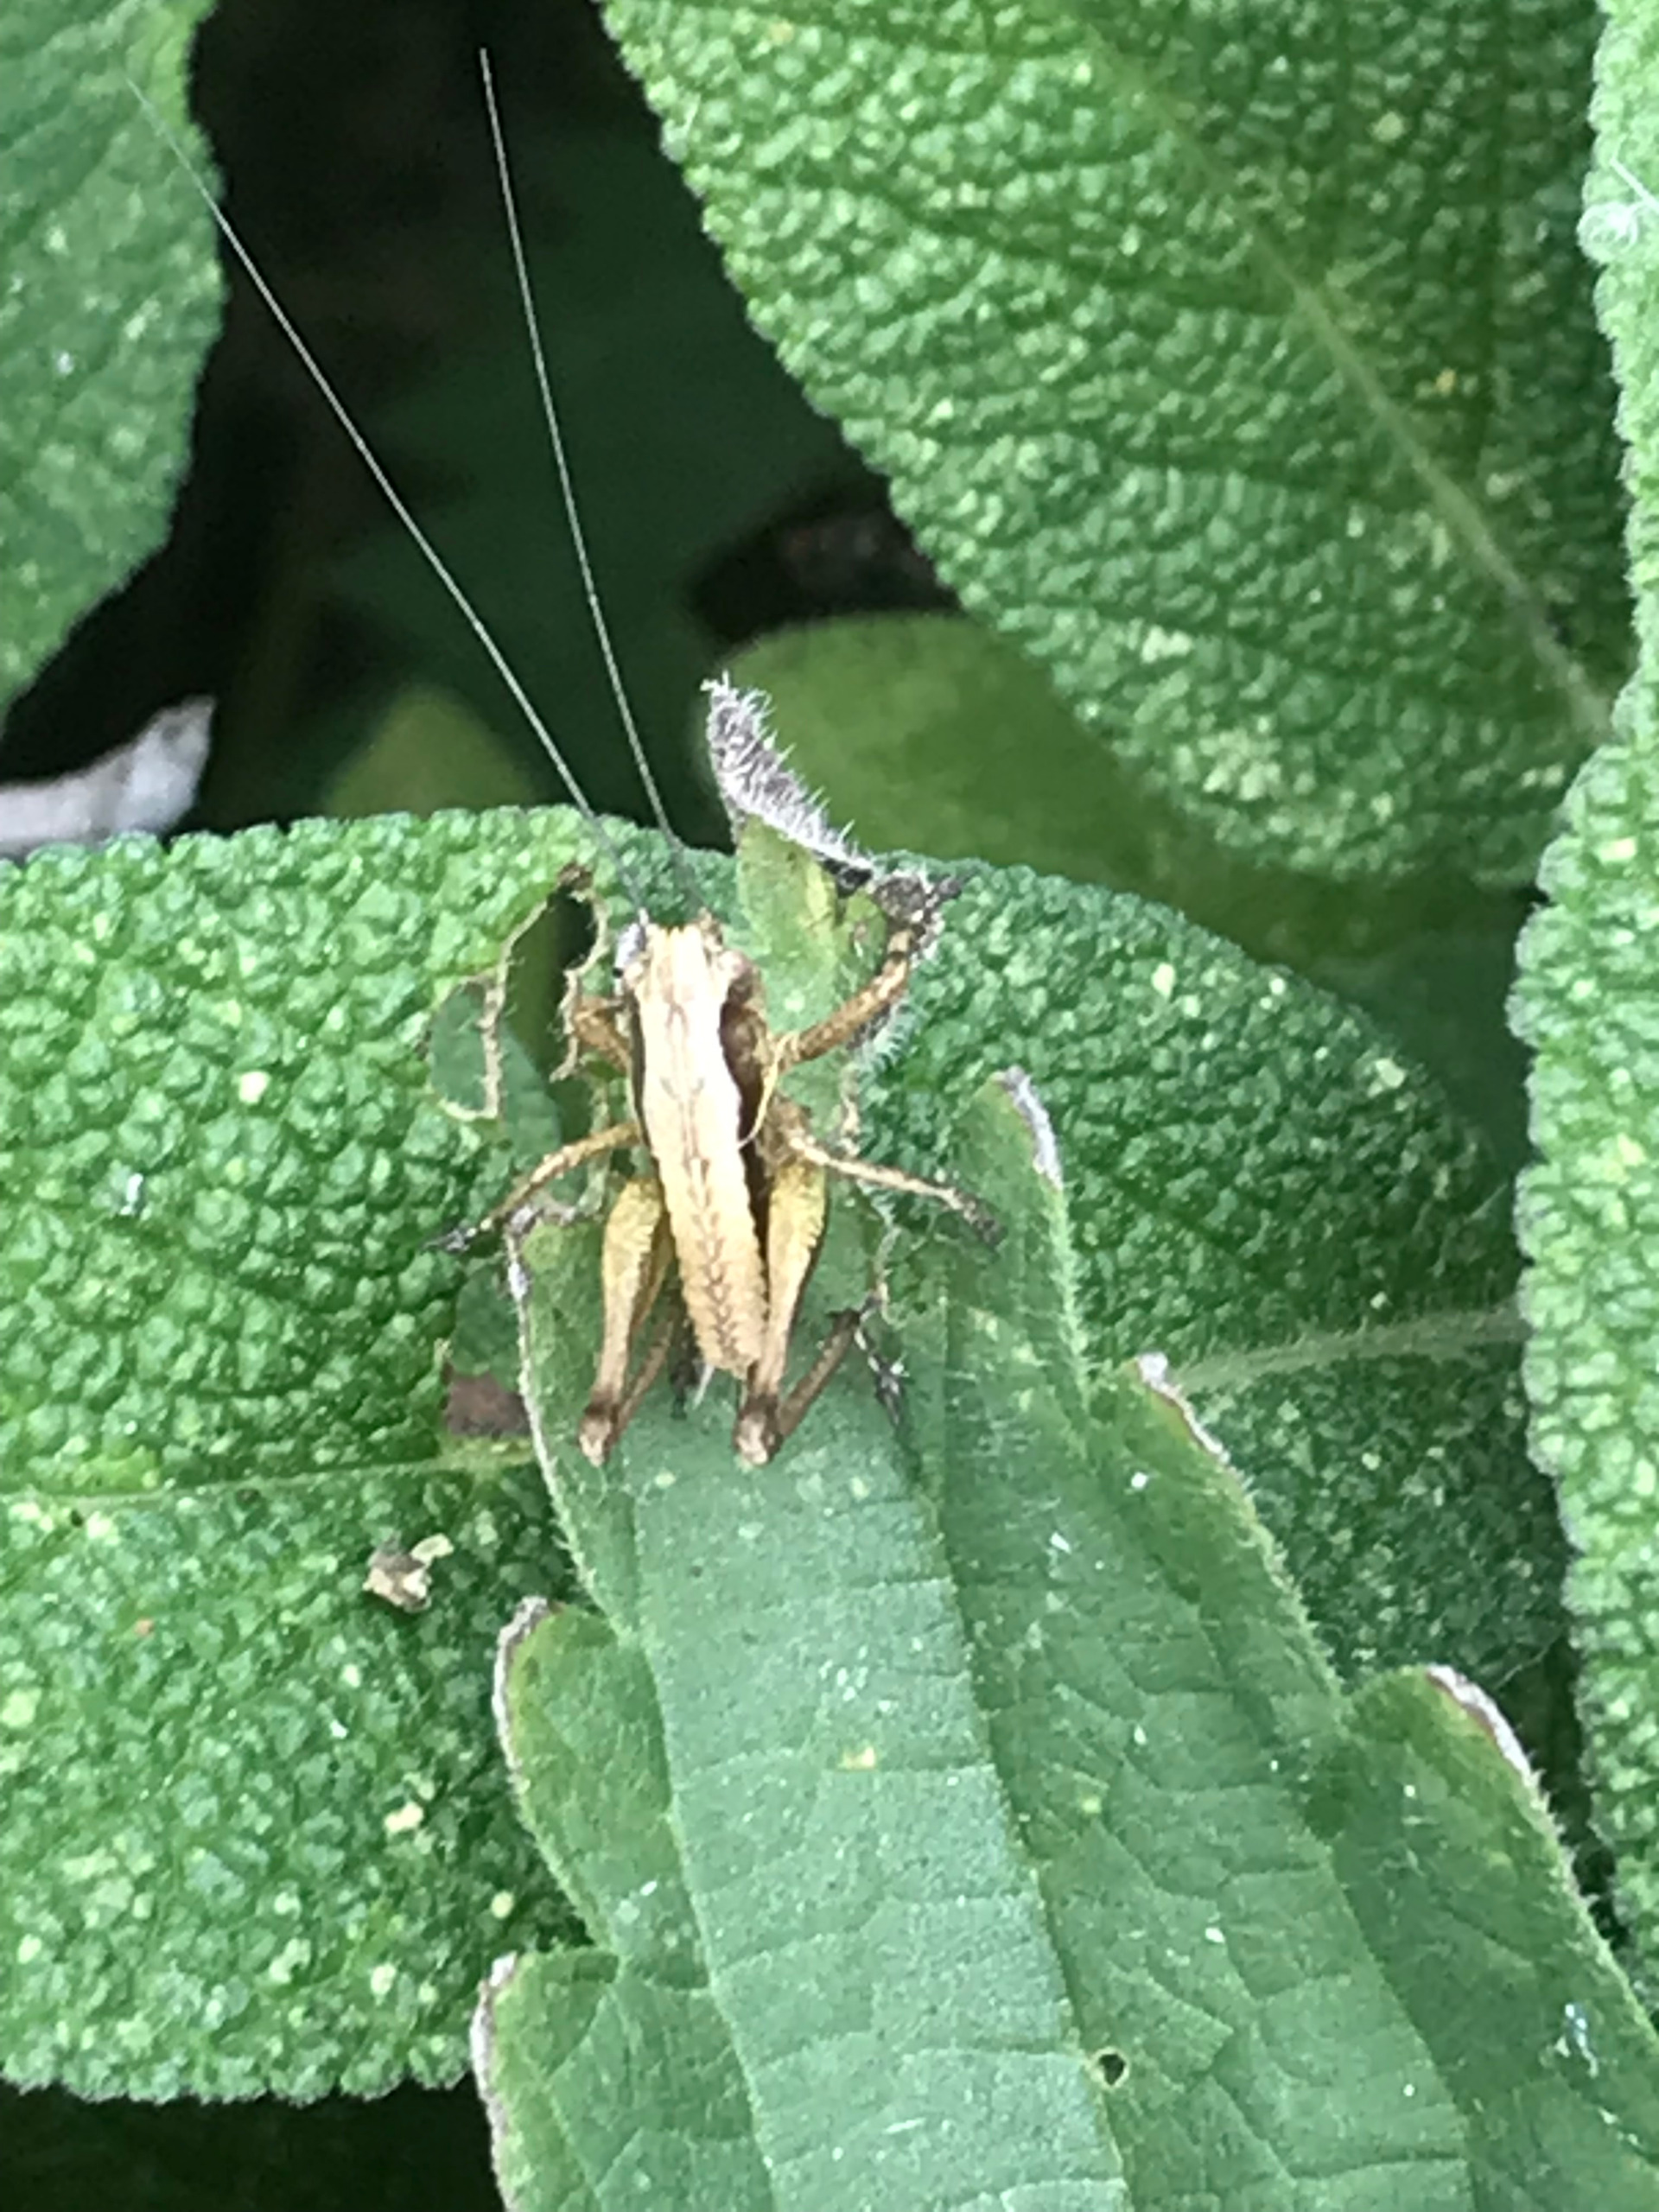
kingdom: Animalia
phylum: Arthropoda
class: Insecta
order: Orthoptera
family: Tettigoniidae
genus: Pholidoptera
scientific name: Pholidoptera griseoaptera
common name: Buskgræshoppe
